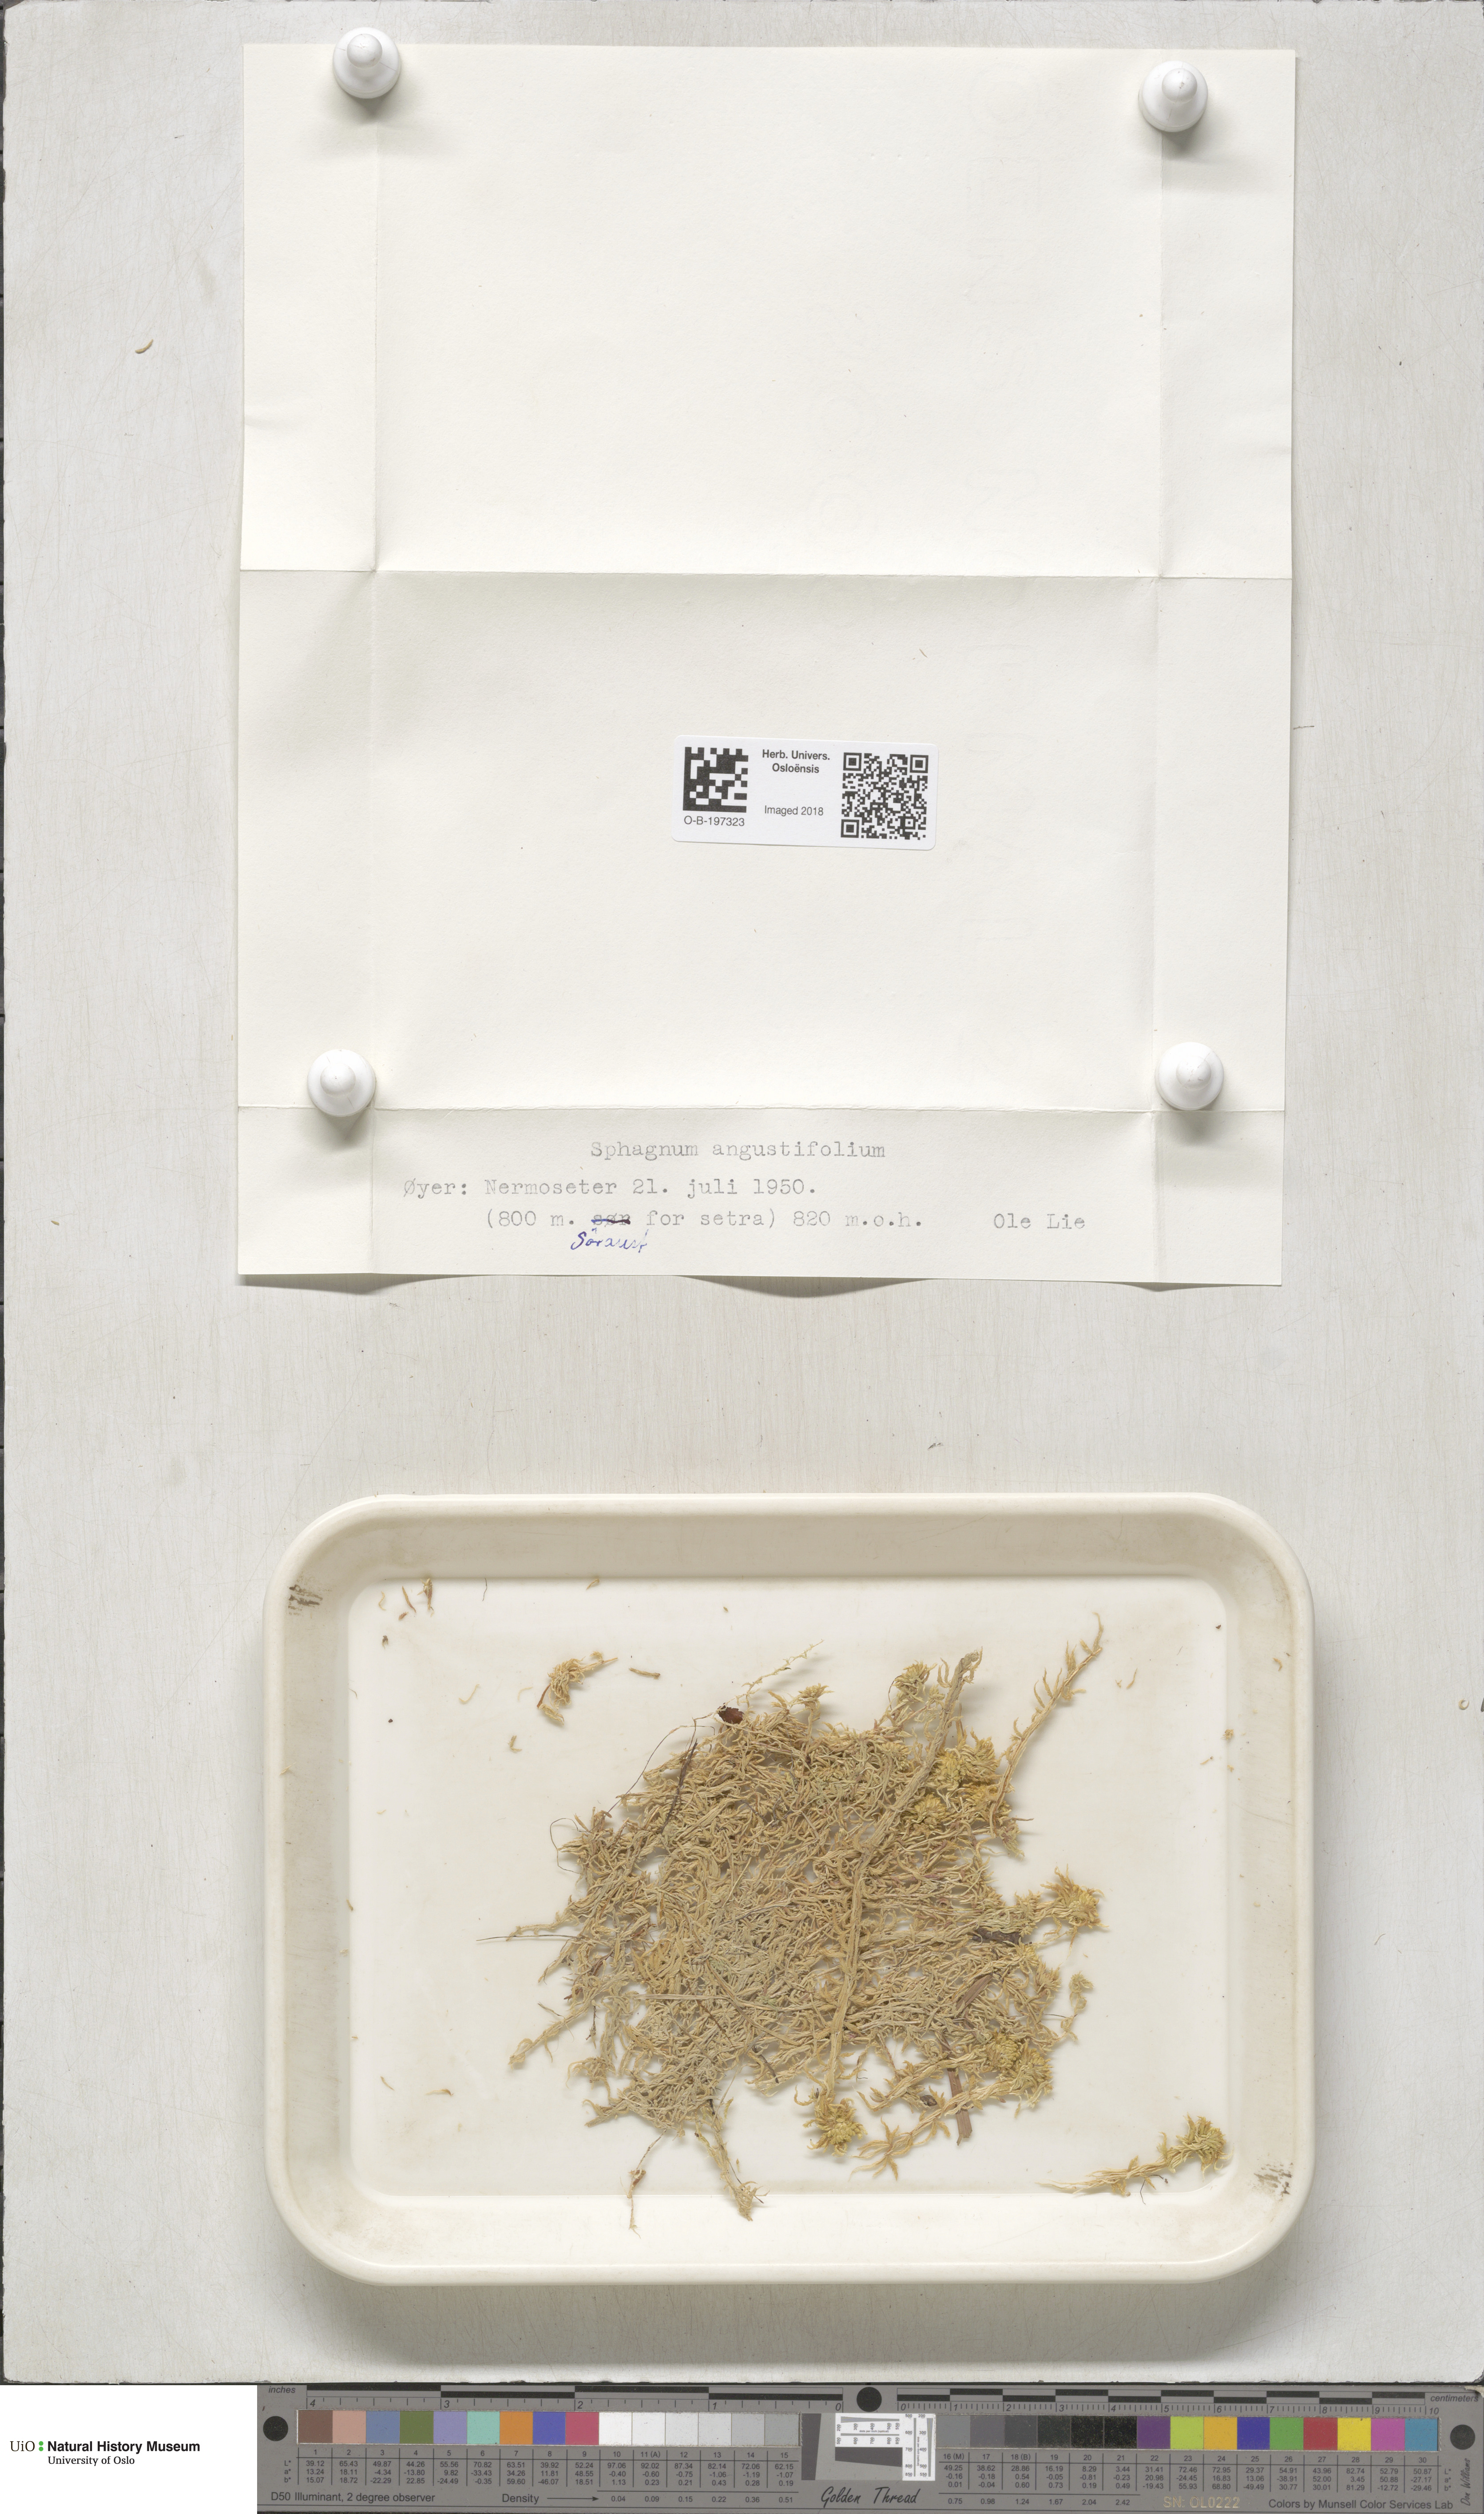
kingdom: Plantae
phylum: Bryophyta
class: Sphagnopsida
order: Sphagnales
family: Sphagnaceae
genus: Sphagnum
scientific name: Sphagnum angustifolium
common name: Narrow-leaved peat moss
